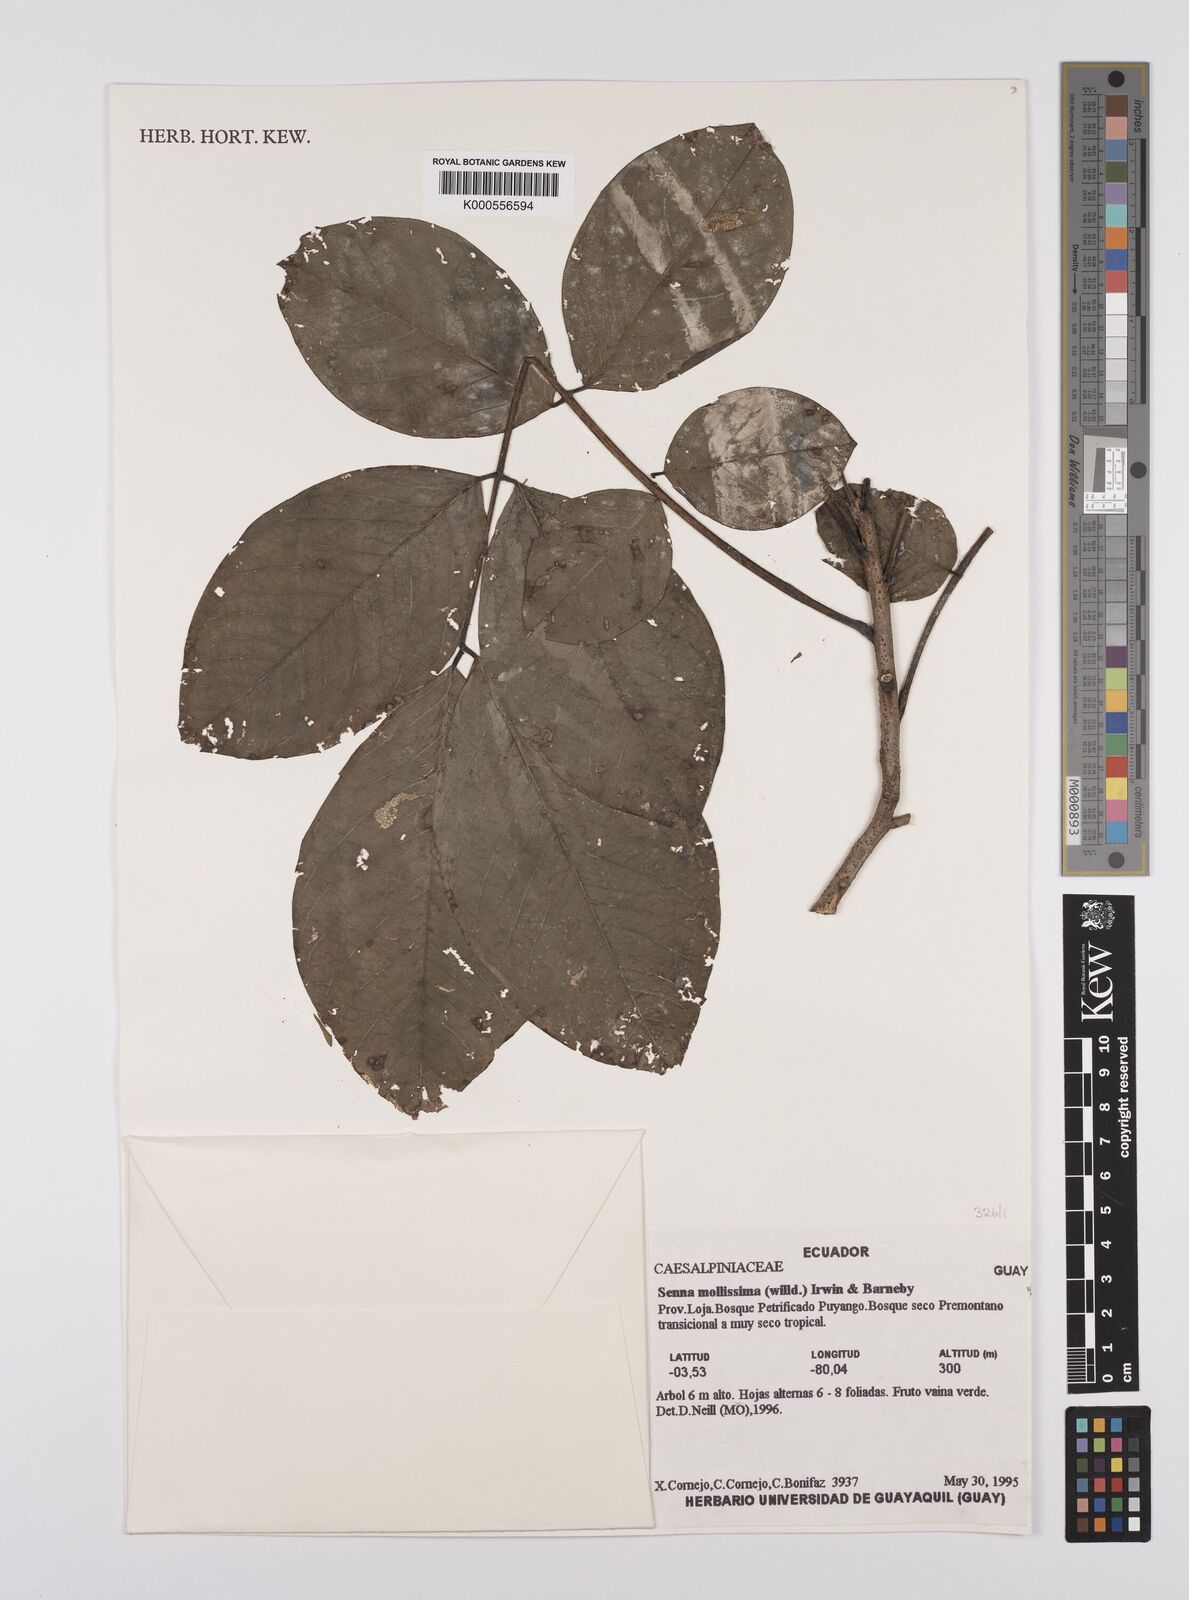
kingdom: Plantae
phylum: Tracheophyta
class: Magnoliopsida
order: Fabales
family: Fabaceae
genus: Senna
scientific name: Senna mollissima
